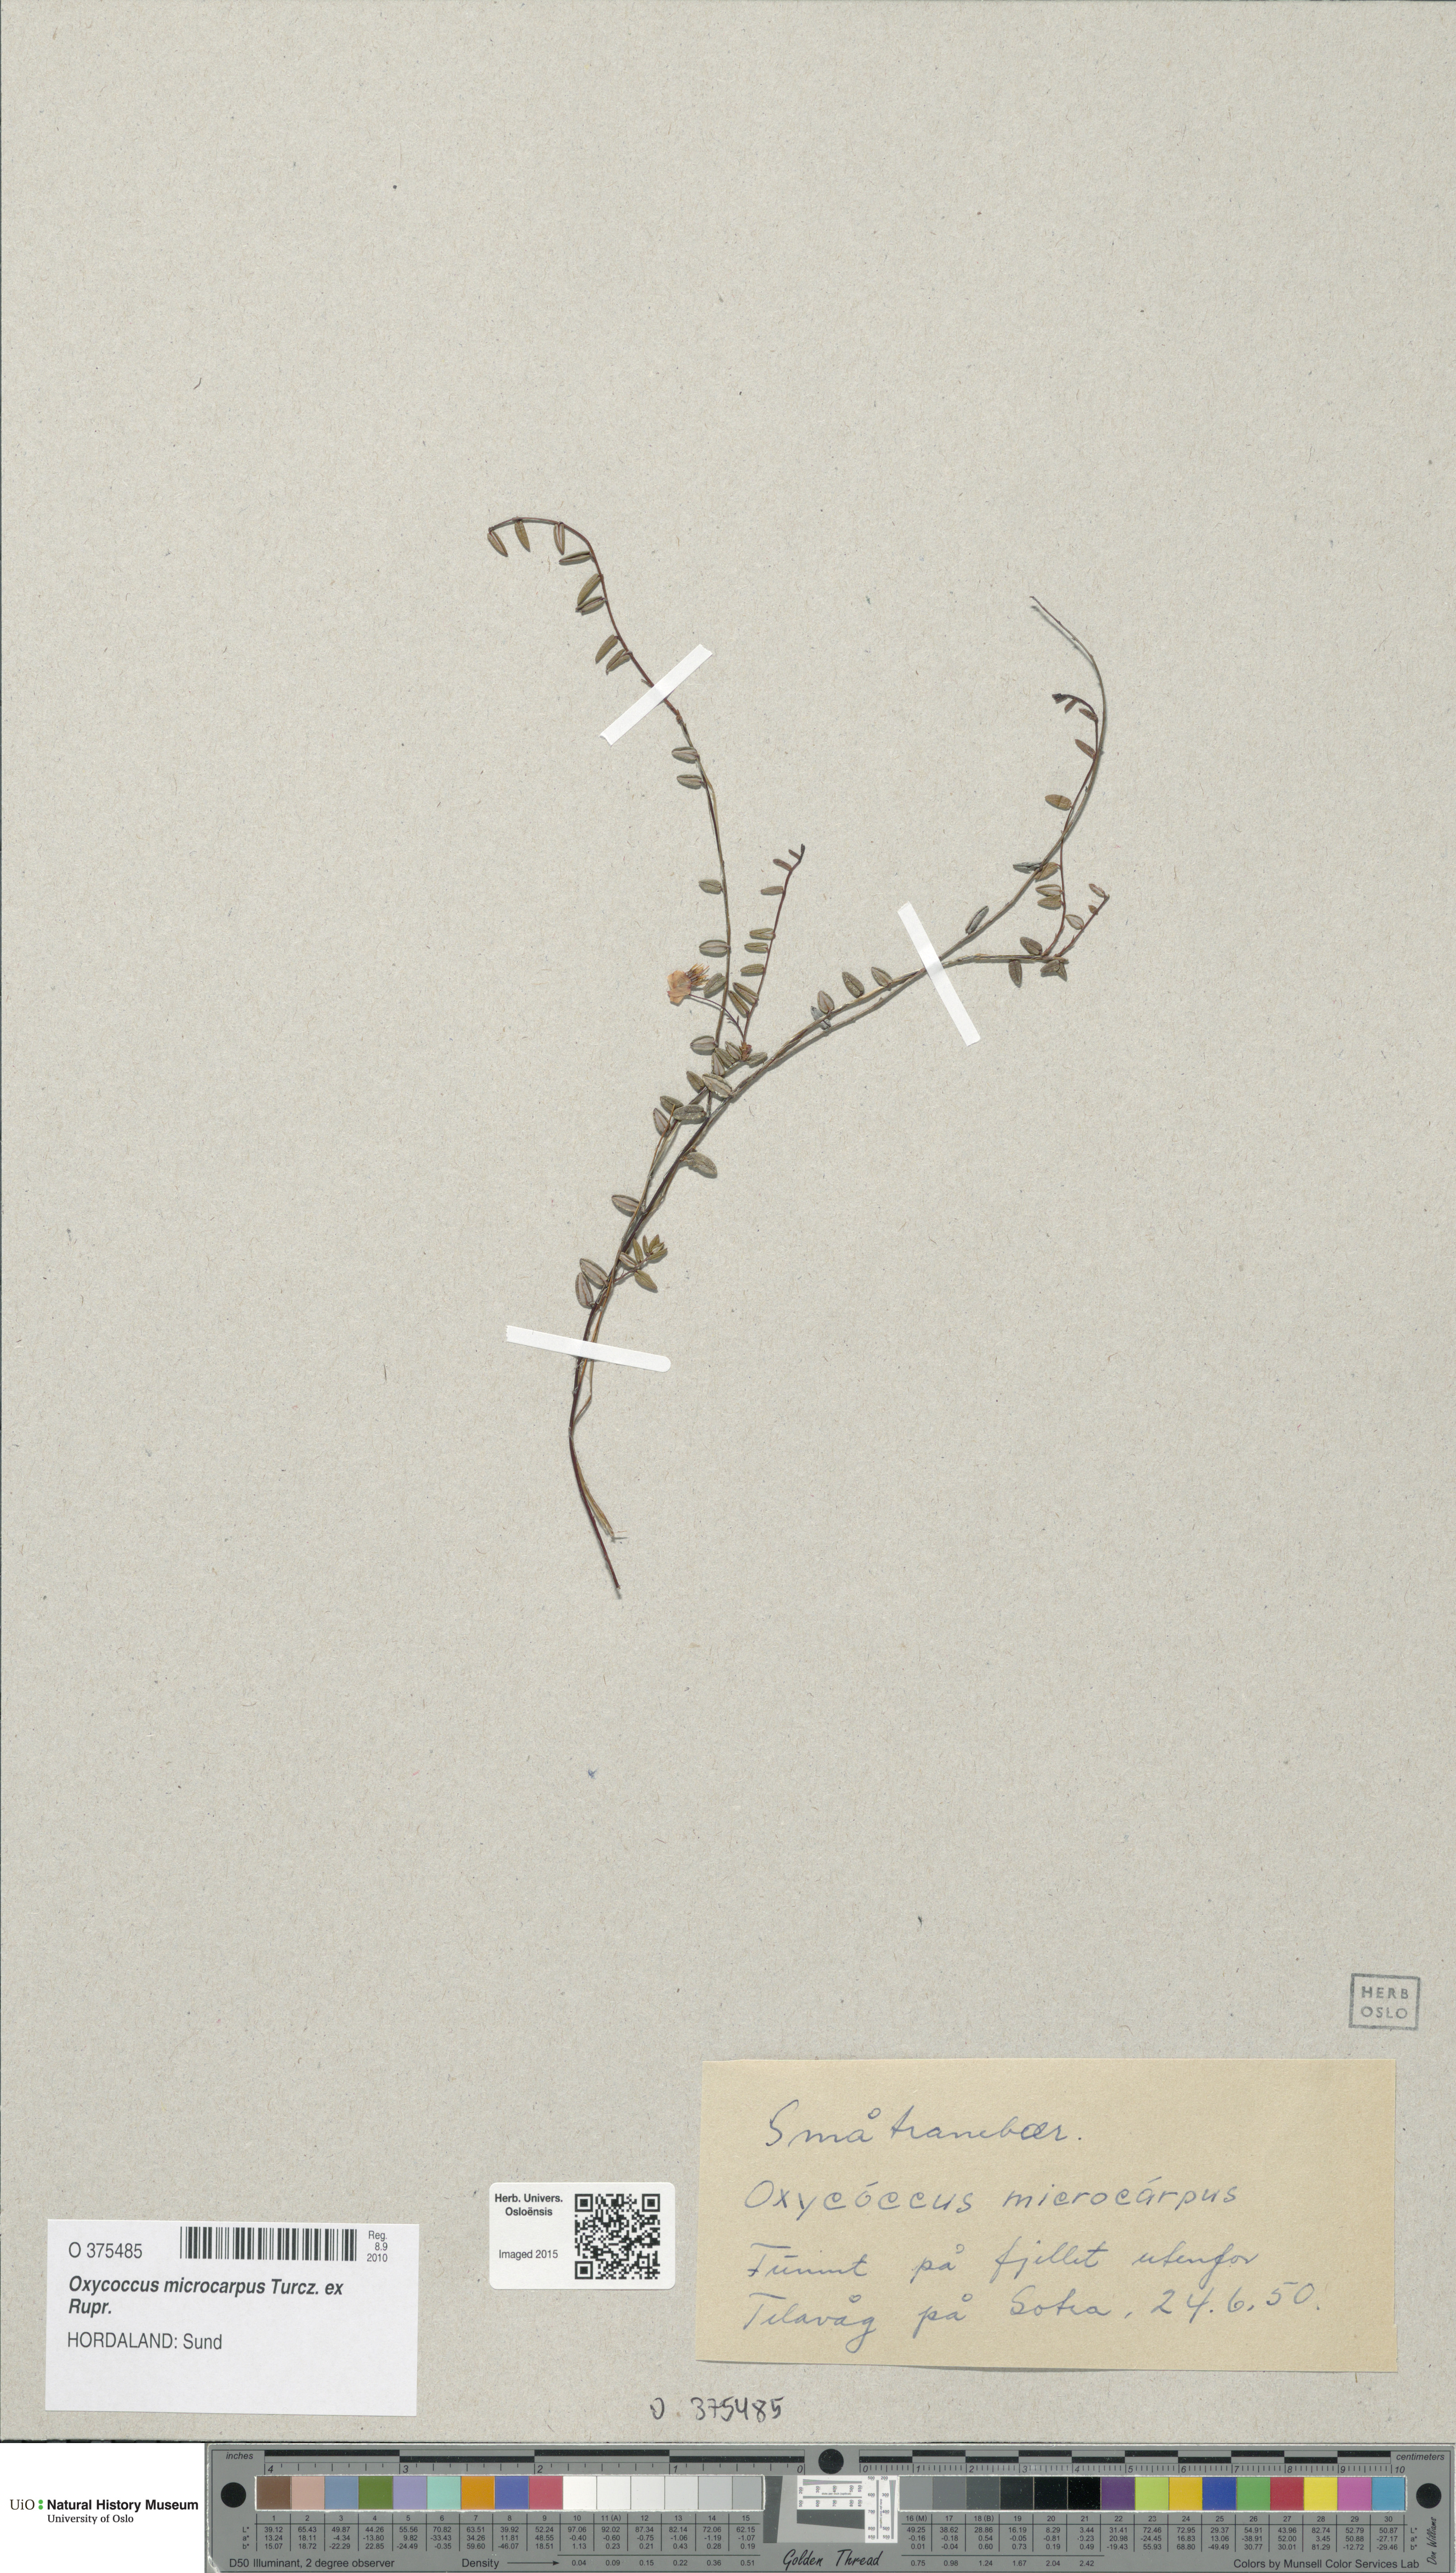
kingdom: Plantae
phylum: Tracheophyta
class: Magnoliopsida
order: Ericales
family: Ericaceae
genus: Vaccinium
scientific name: Vaccinium microcarpum
